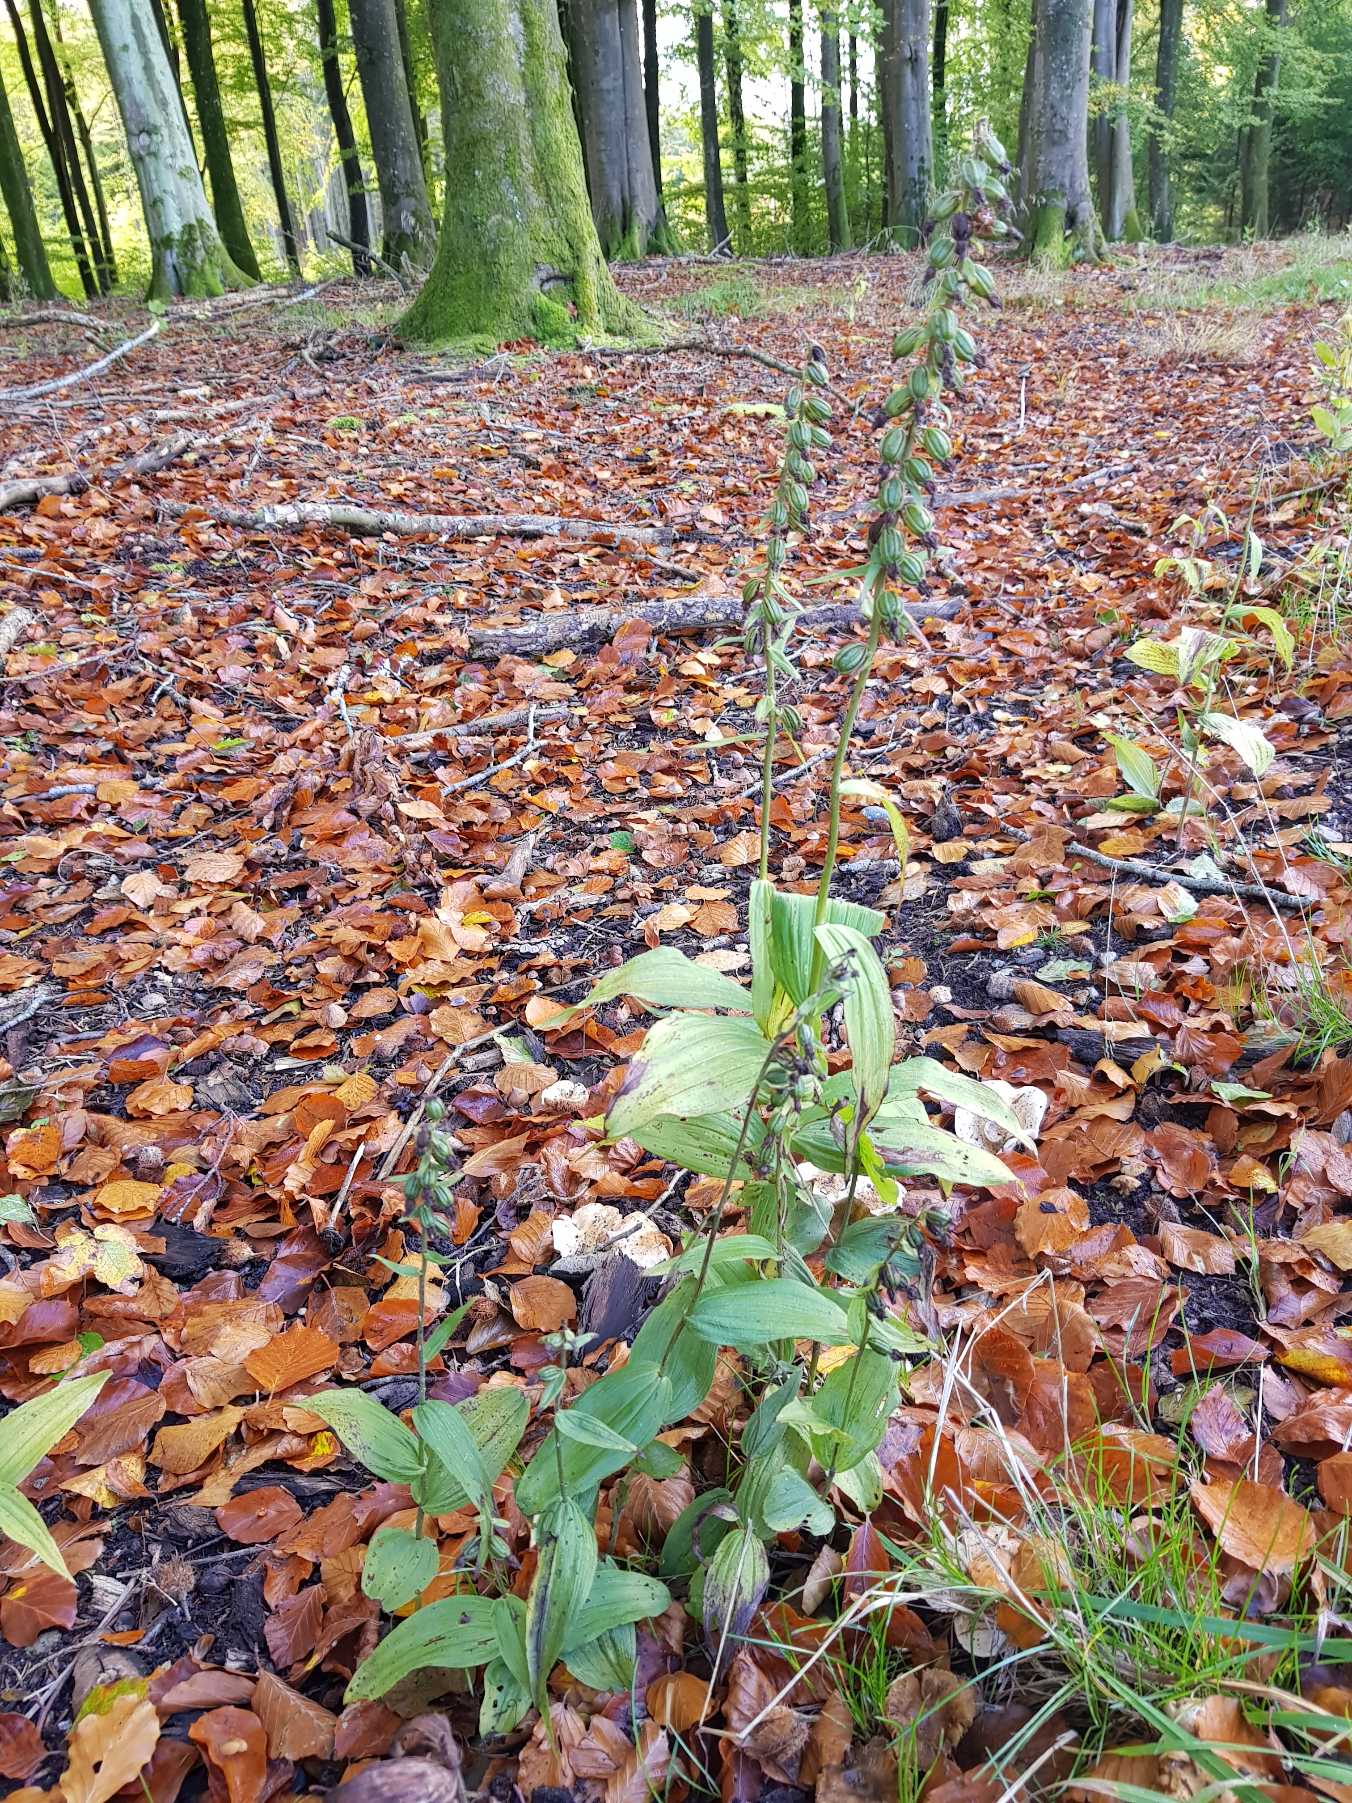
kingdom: Plantae
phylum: Tracheophyta
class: Liliopsida
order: Asparagales
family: Orchidaceae
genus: Epipactis
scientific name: Epipactis helleborine
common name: Skov-hullæbe
